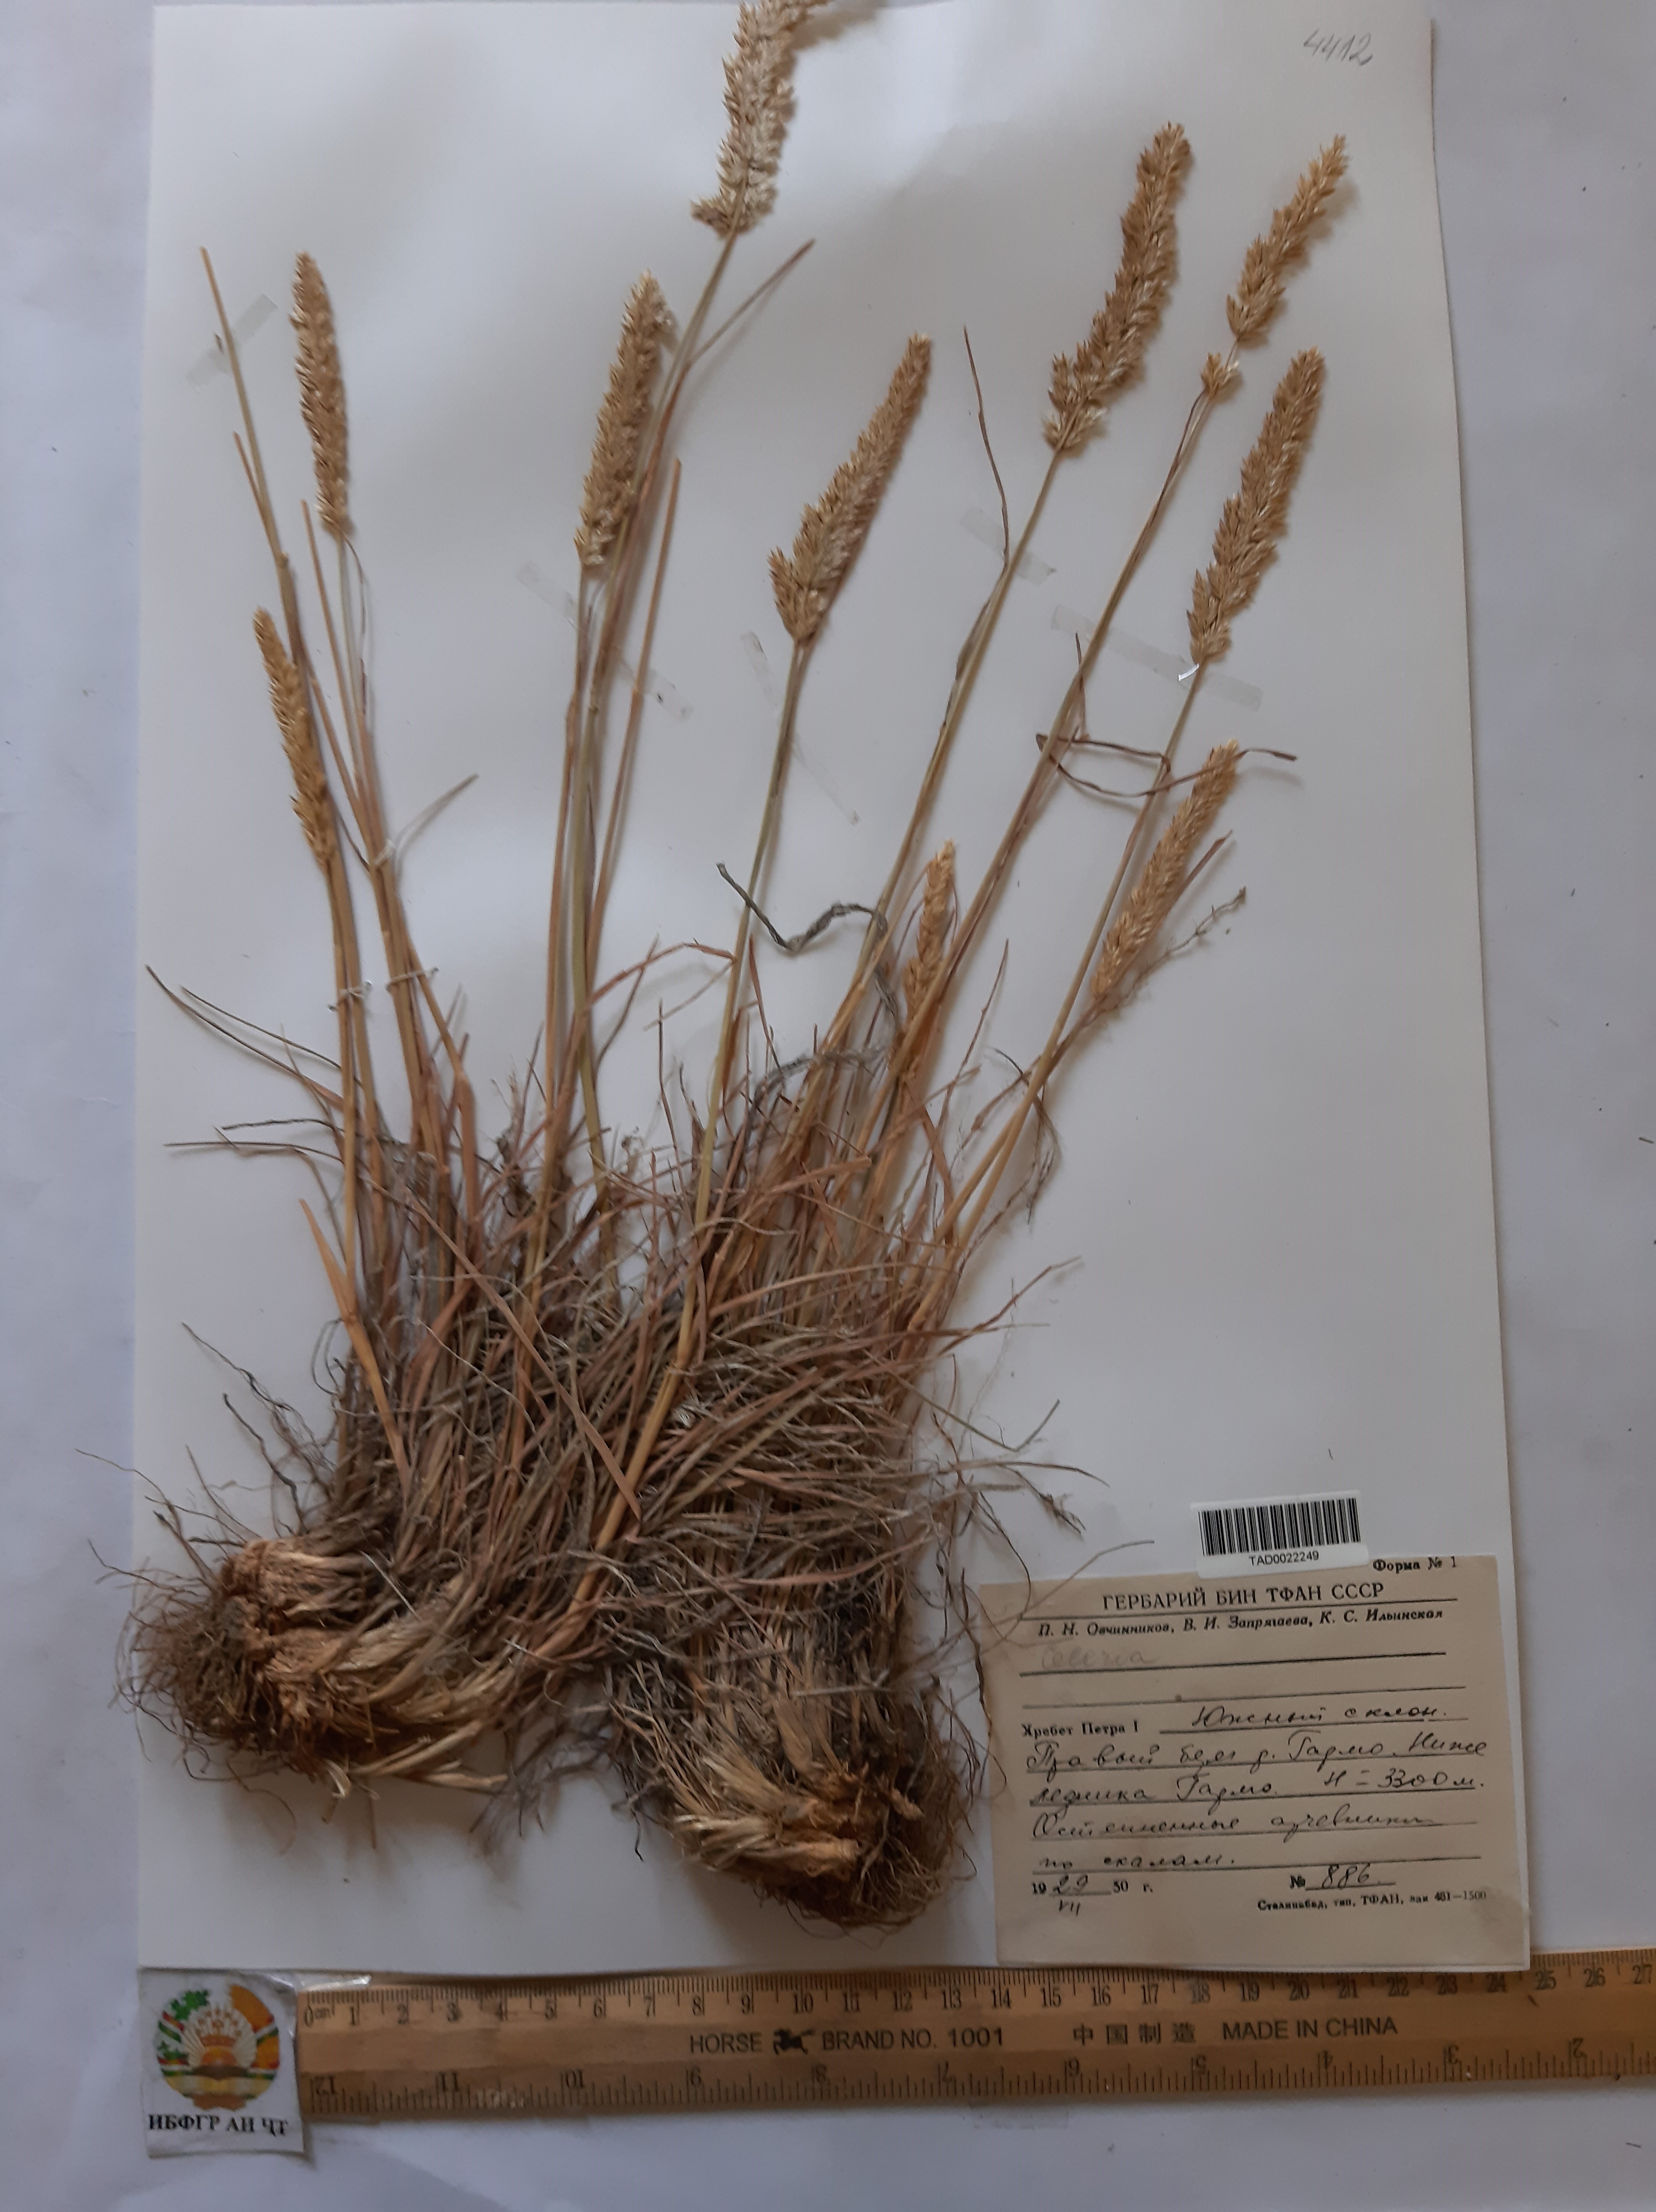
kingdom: Plantae
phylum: Tracheophyta
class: Liliopsida
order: Poales
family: Poaceae
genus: Koeleria
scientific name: Koeleria macrantha
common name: Crested hair-grass
